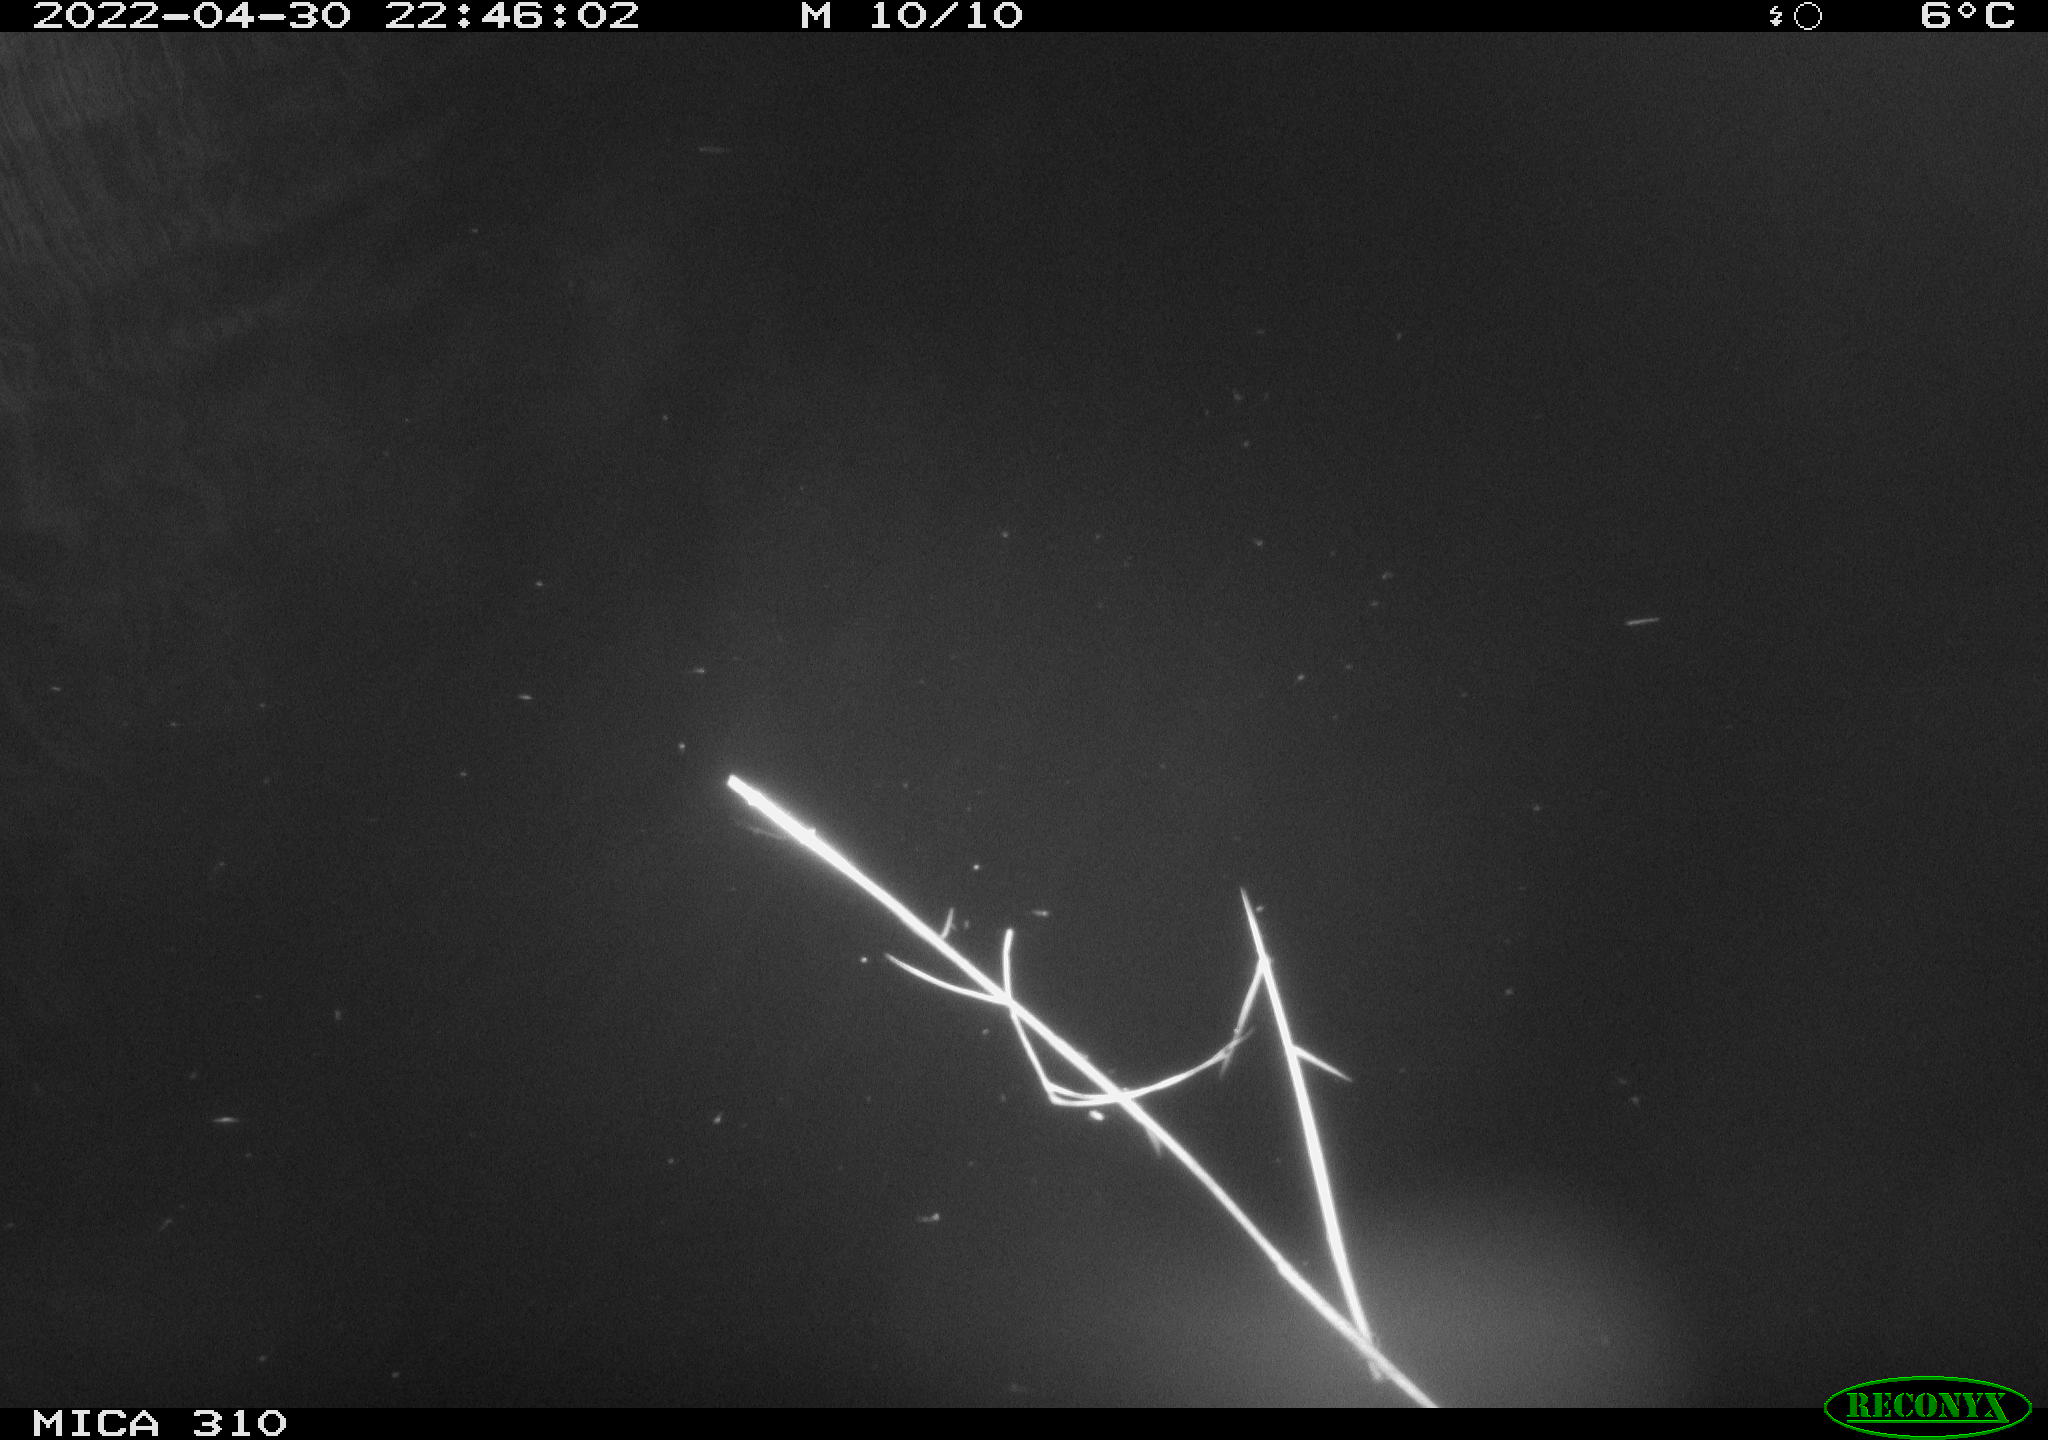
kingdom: Animalia
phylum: Chordata
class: Mammalia
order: Rodentia
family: Cricetidae
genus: Ondatra
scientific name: Ondatra zibethicus
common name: Muskrat
